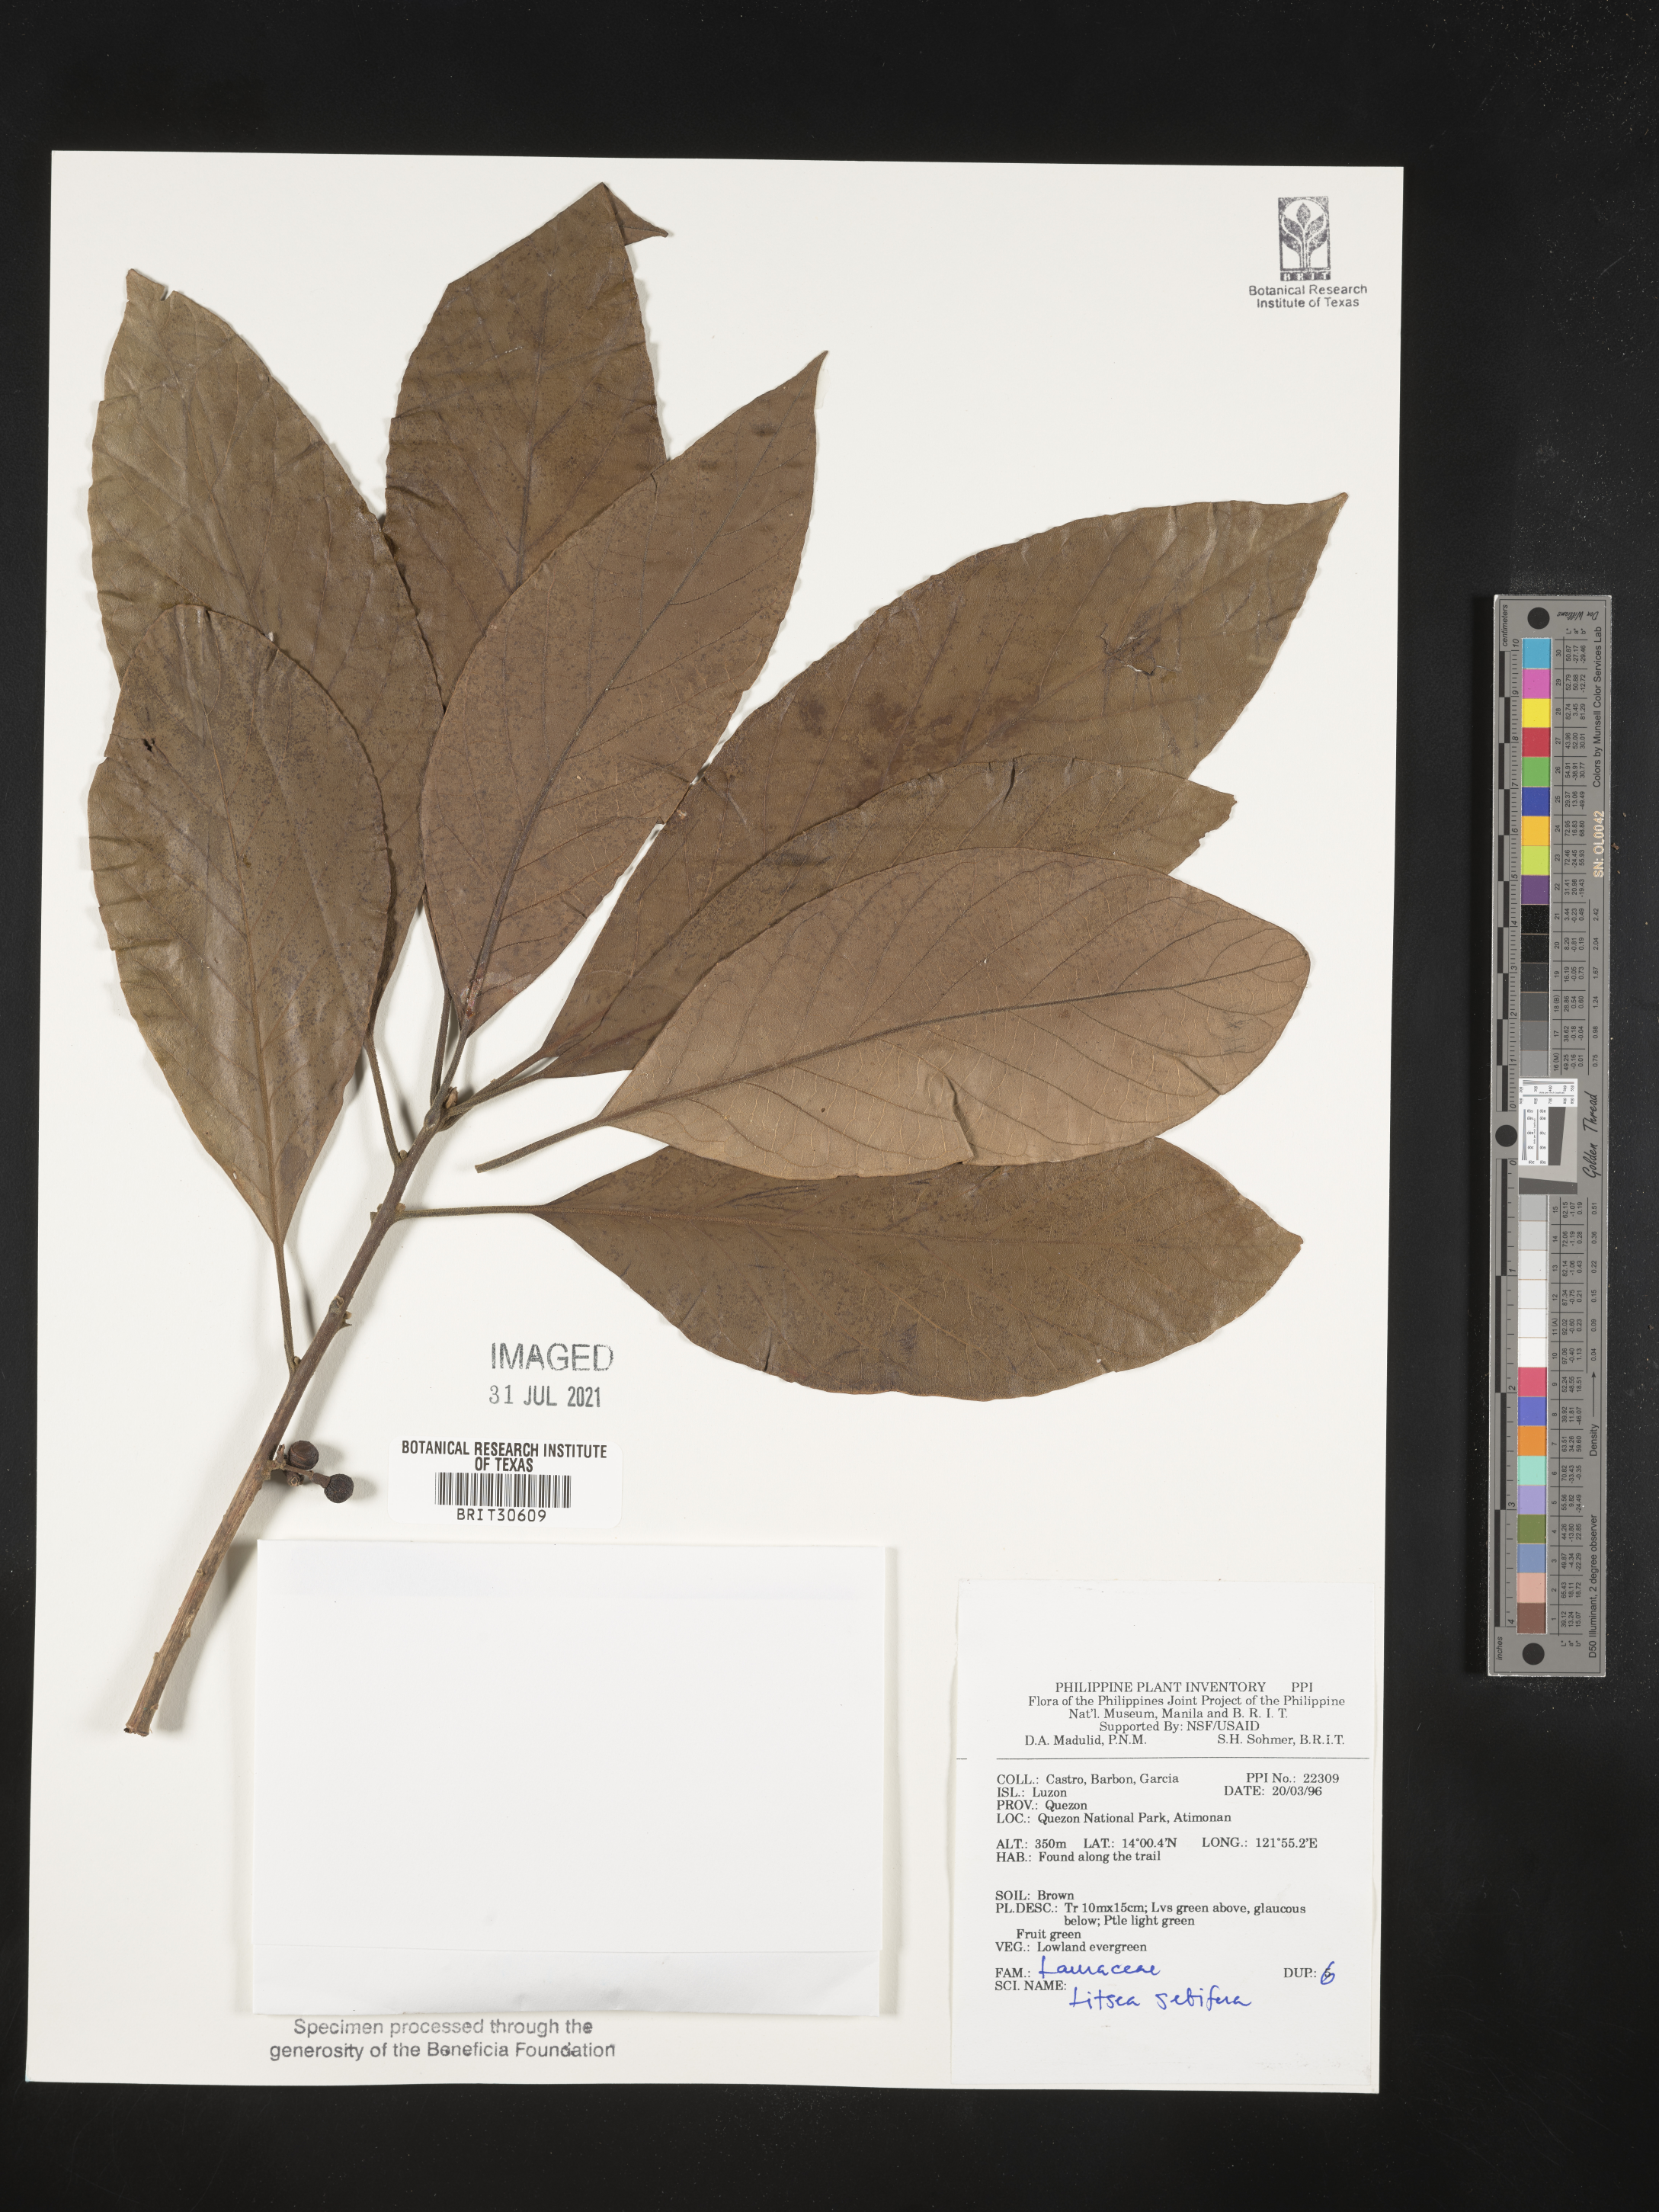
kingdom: Plantae
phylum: Tracheophyta
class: Magnoliopsida
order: Laurales
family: Lauraceae
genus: Litsea
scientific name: Litsea glutinosa
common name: Indian-laurel
